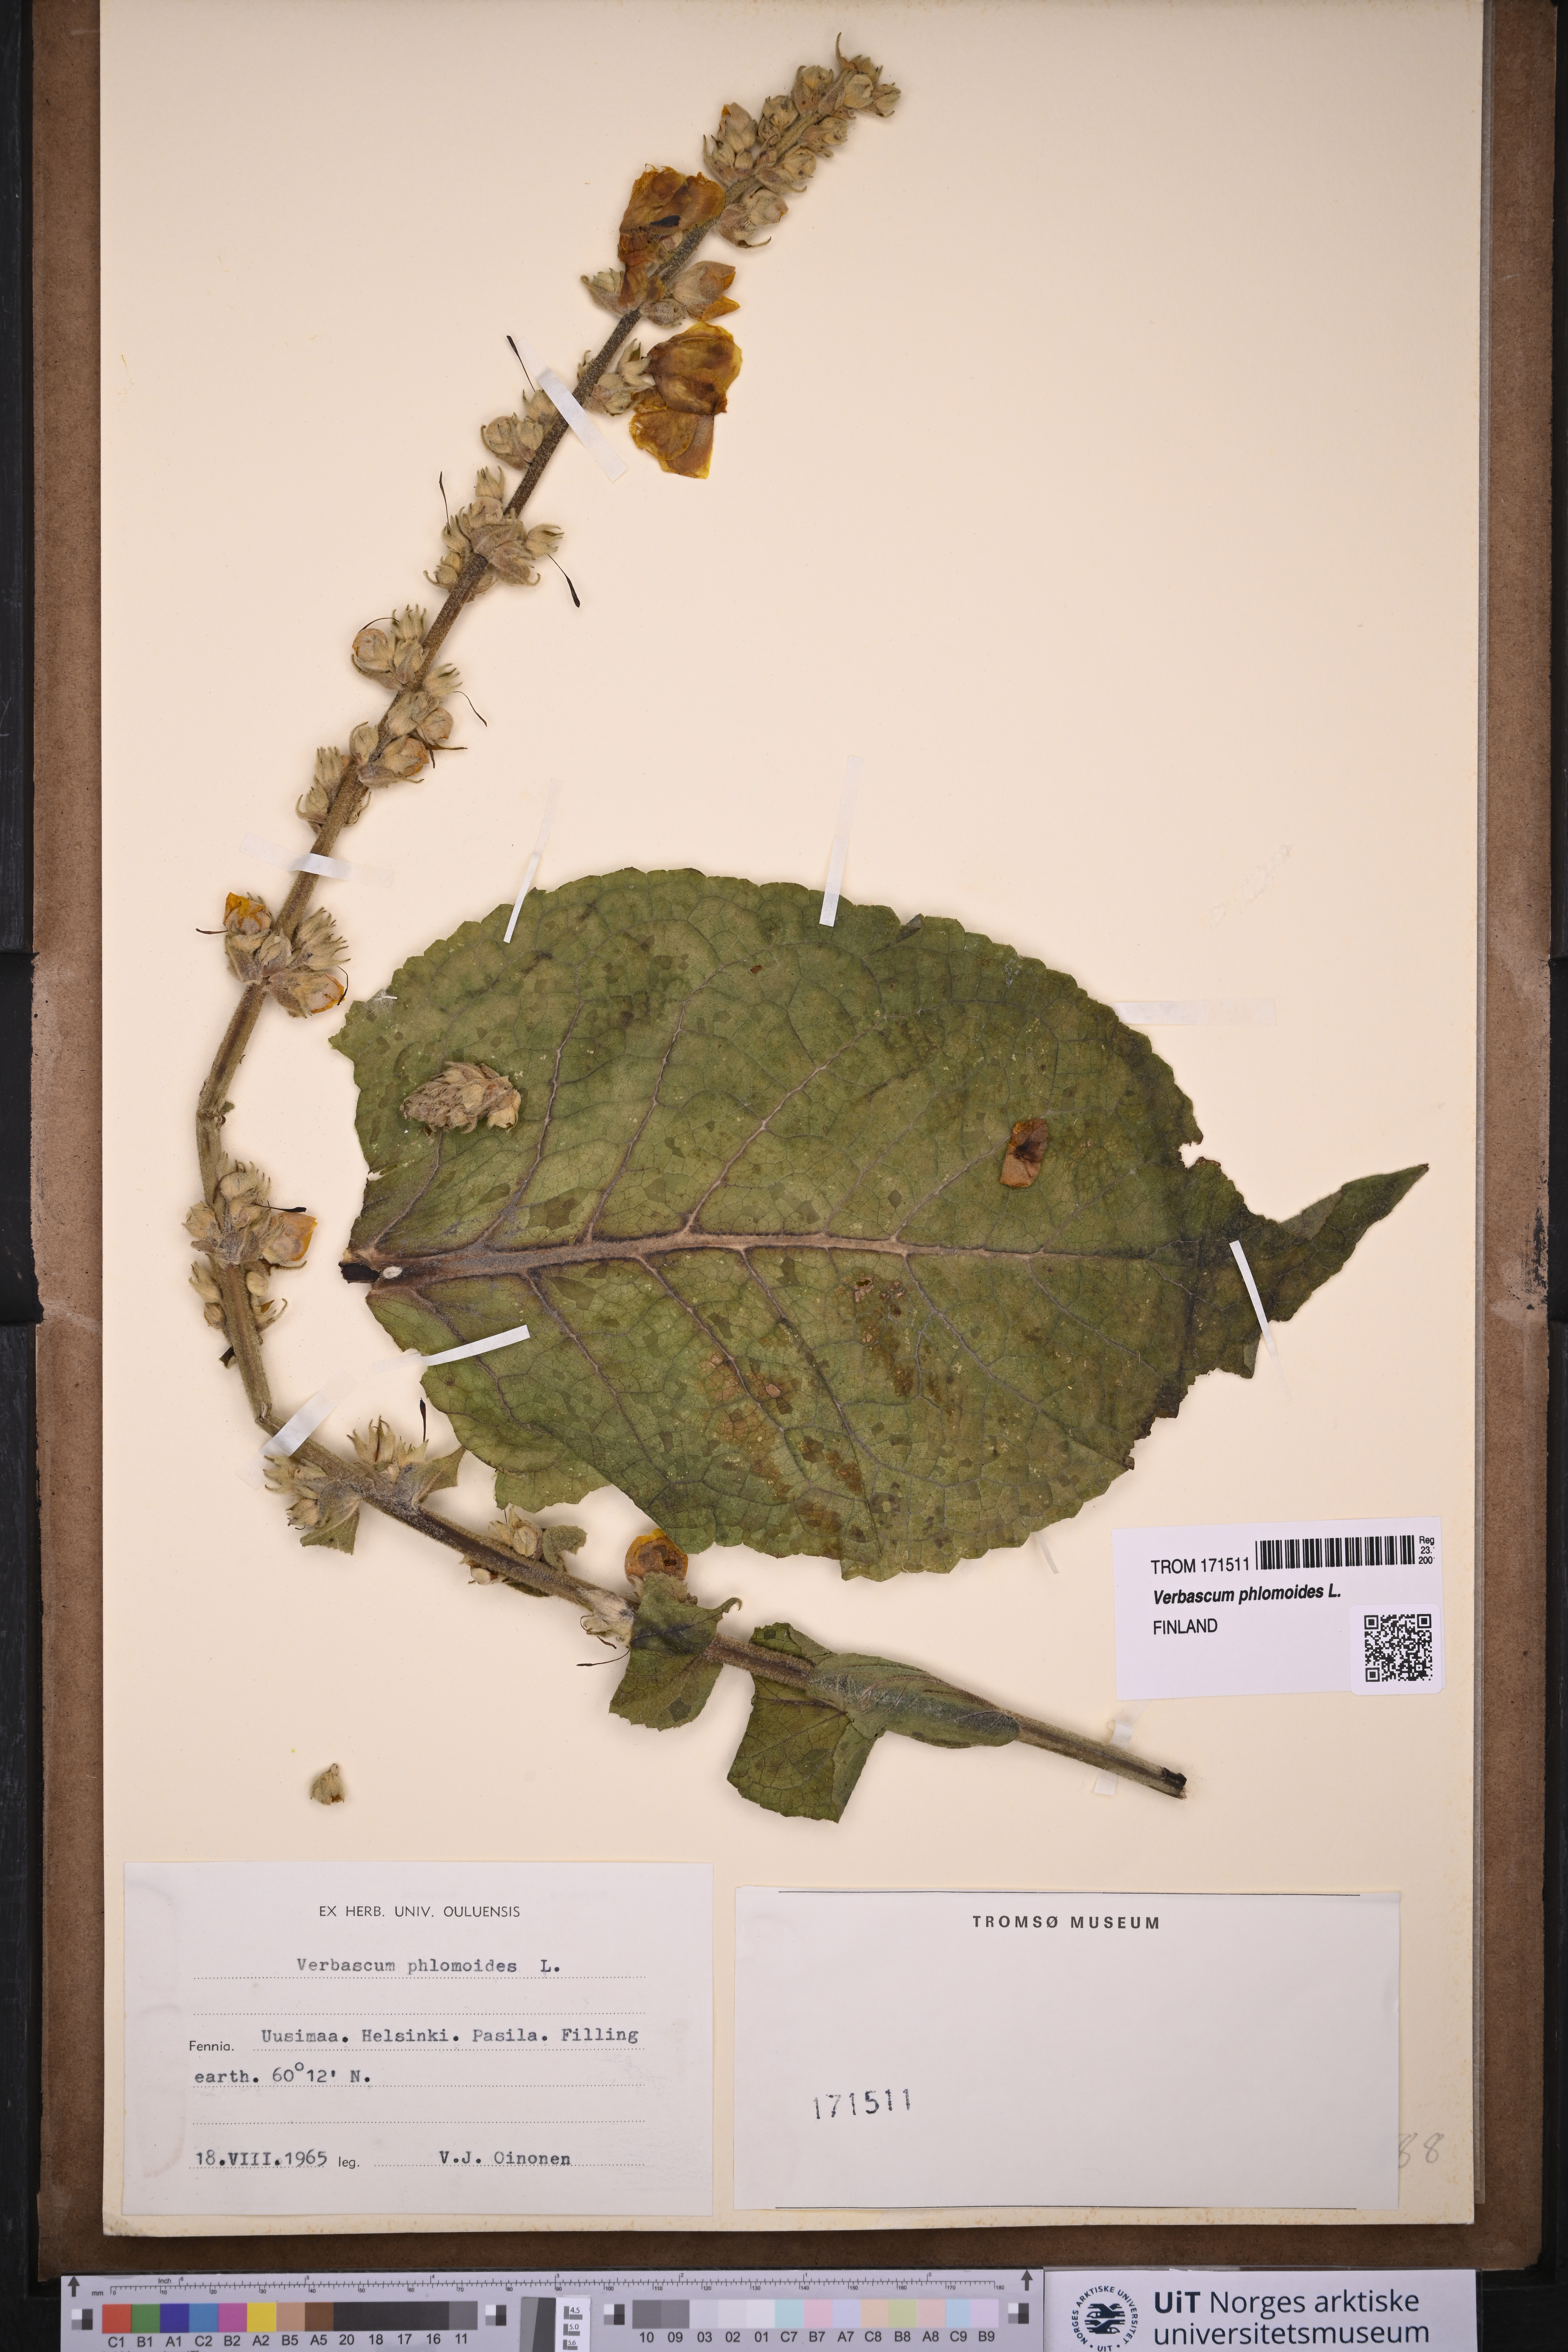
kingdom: Plantae
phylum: Tracheophyta
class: Magnoliopsida
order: Lamiales
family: Scrophulariaceae
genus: Verbascum
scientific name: Verbascum phlomoides
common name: Orange mullein
